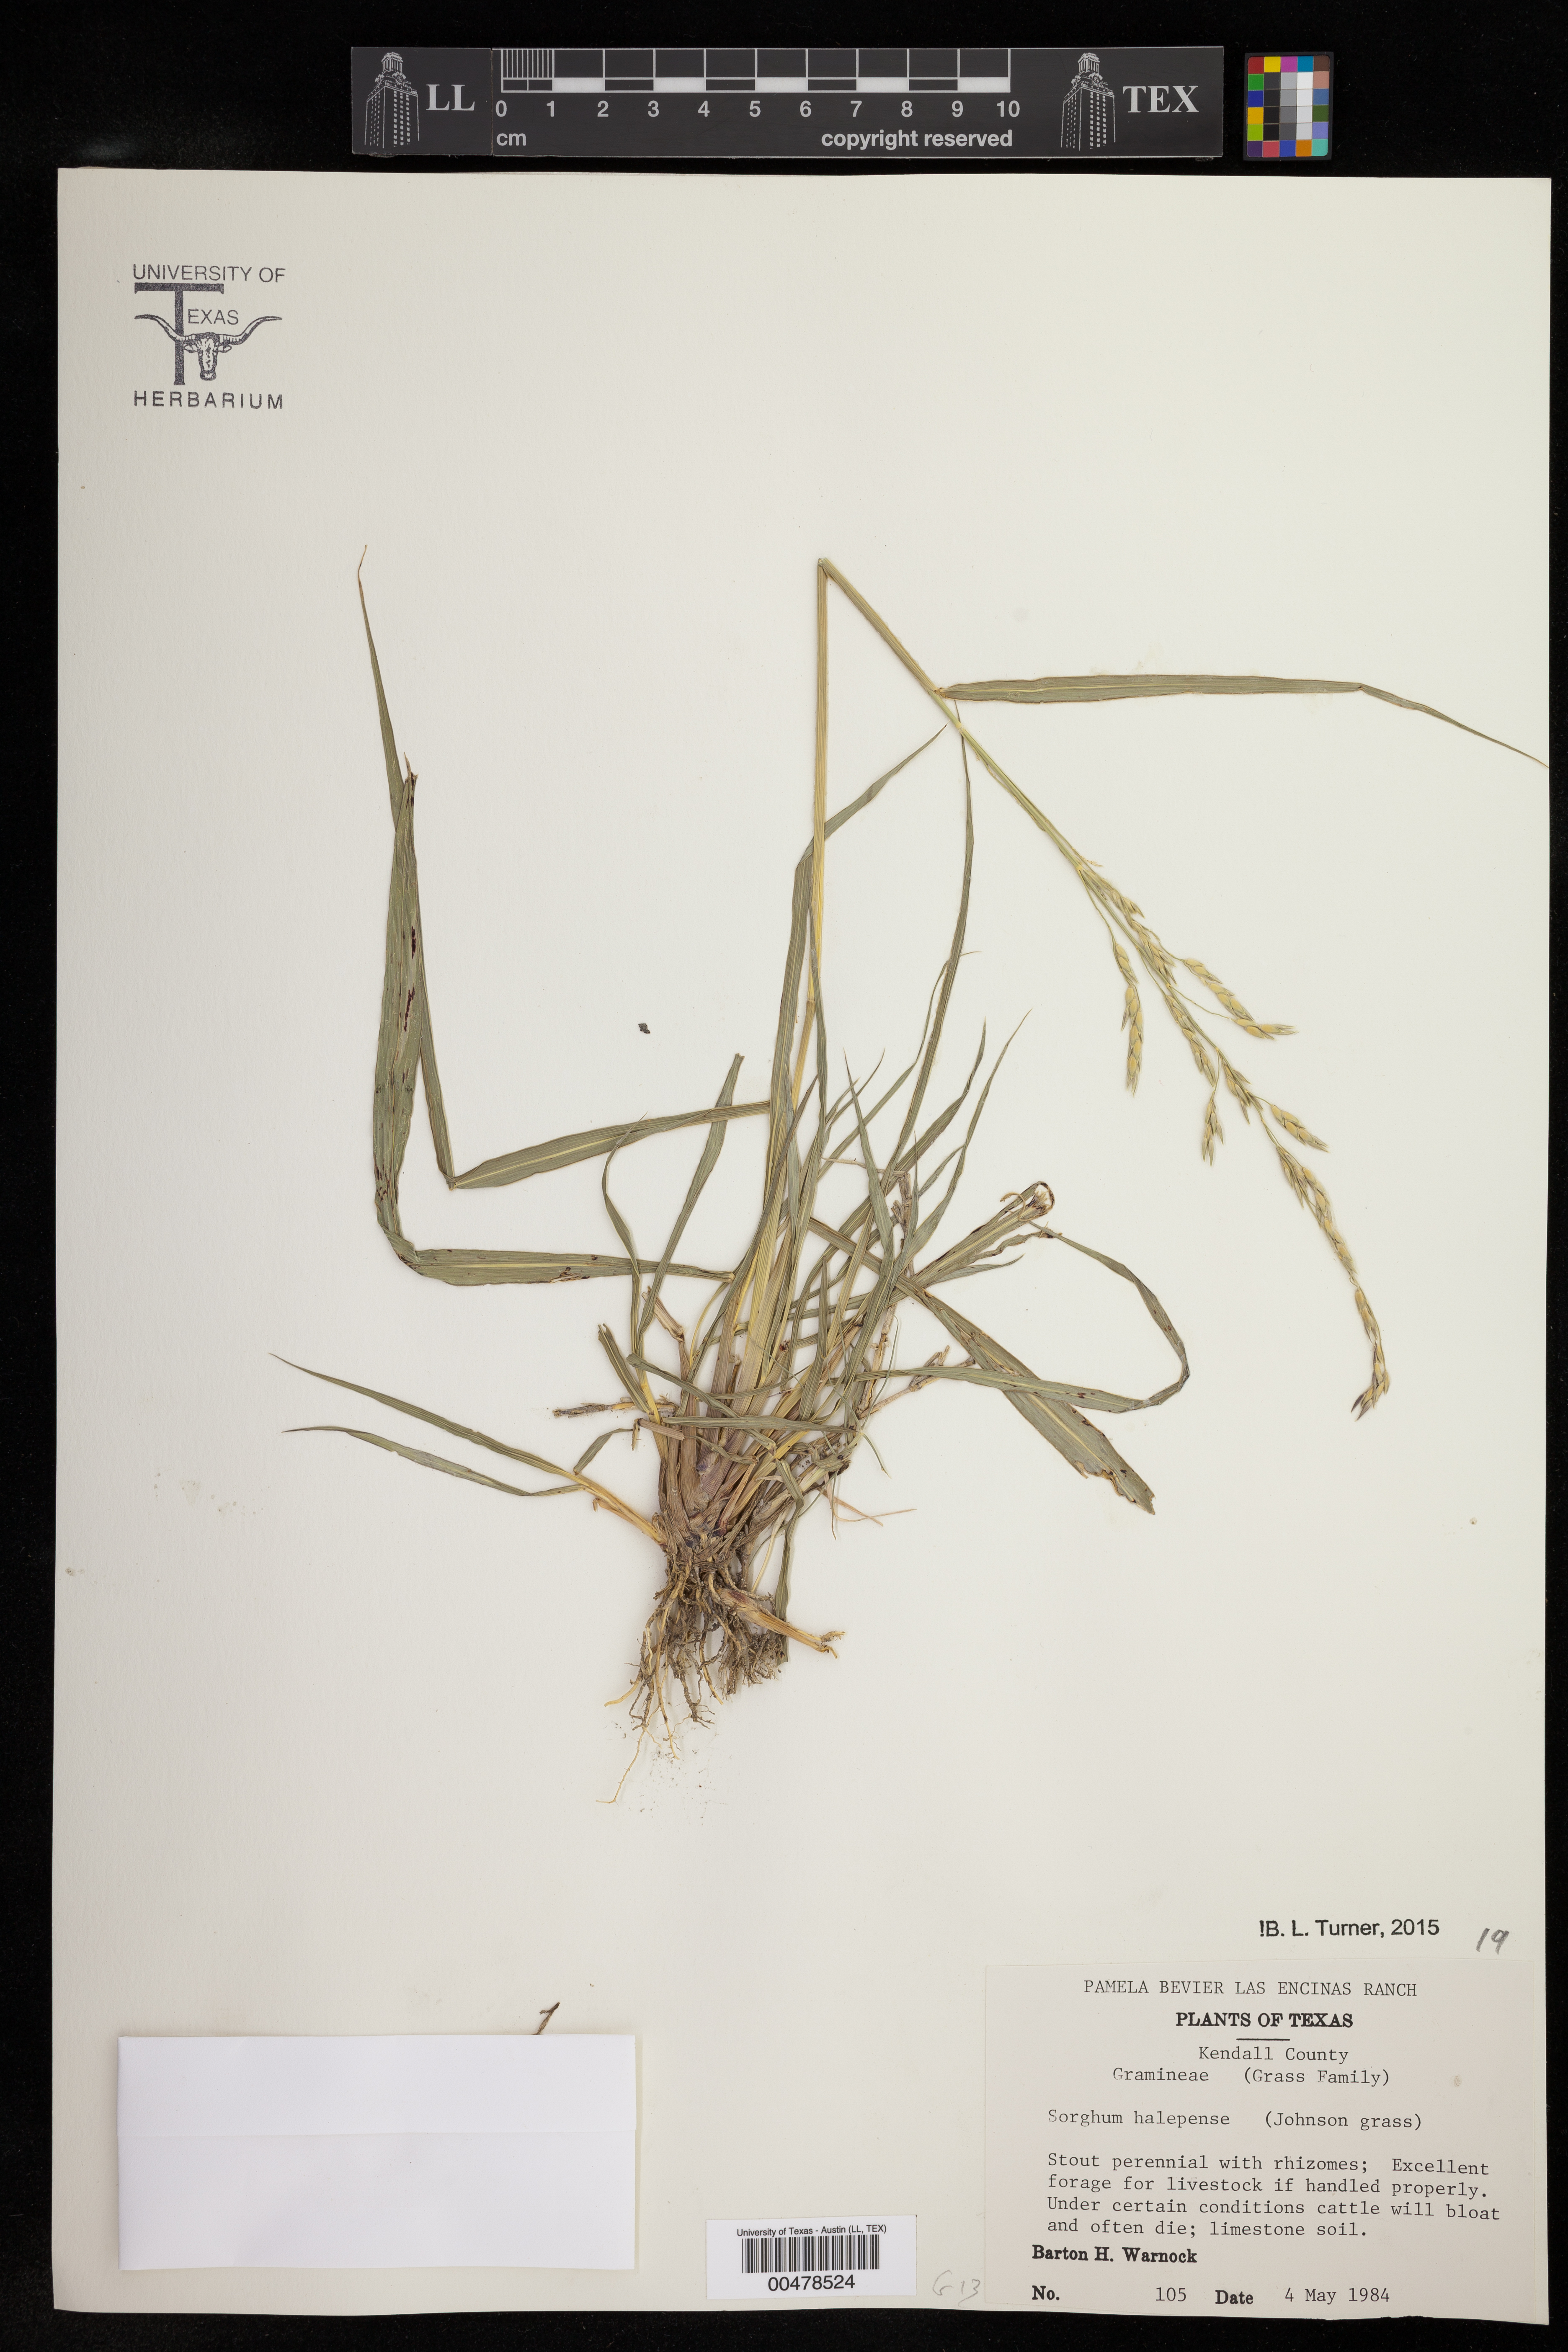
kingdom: Plantae
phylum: Tracheophyta
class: Liliopsida
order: Poales
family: Poaceae
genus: Sorghum
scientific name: Sorghum halepense
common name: Johnson-grass
